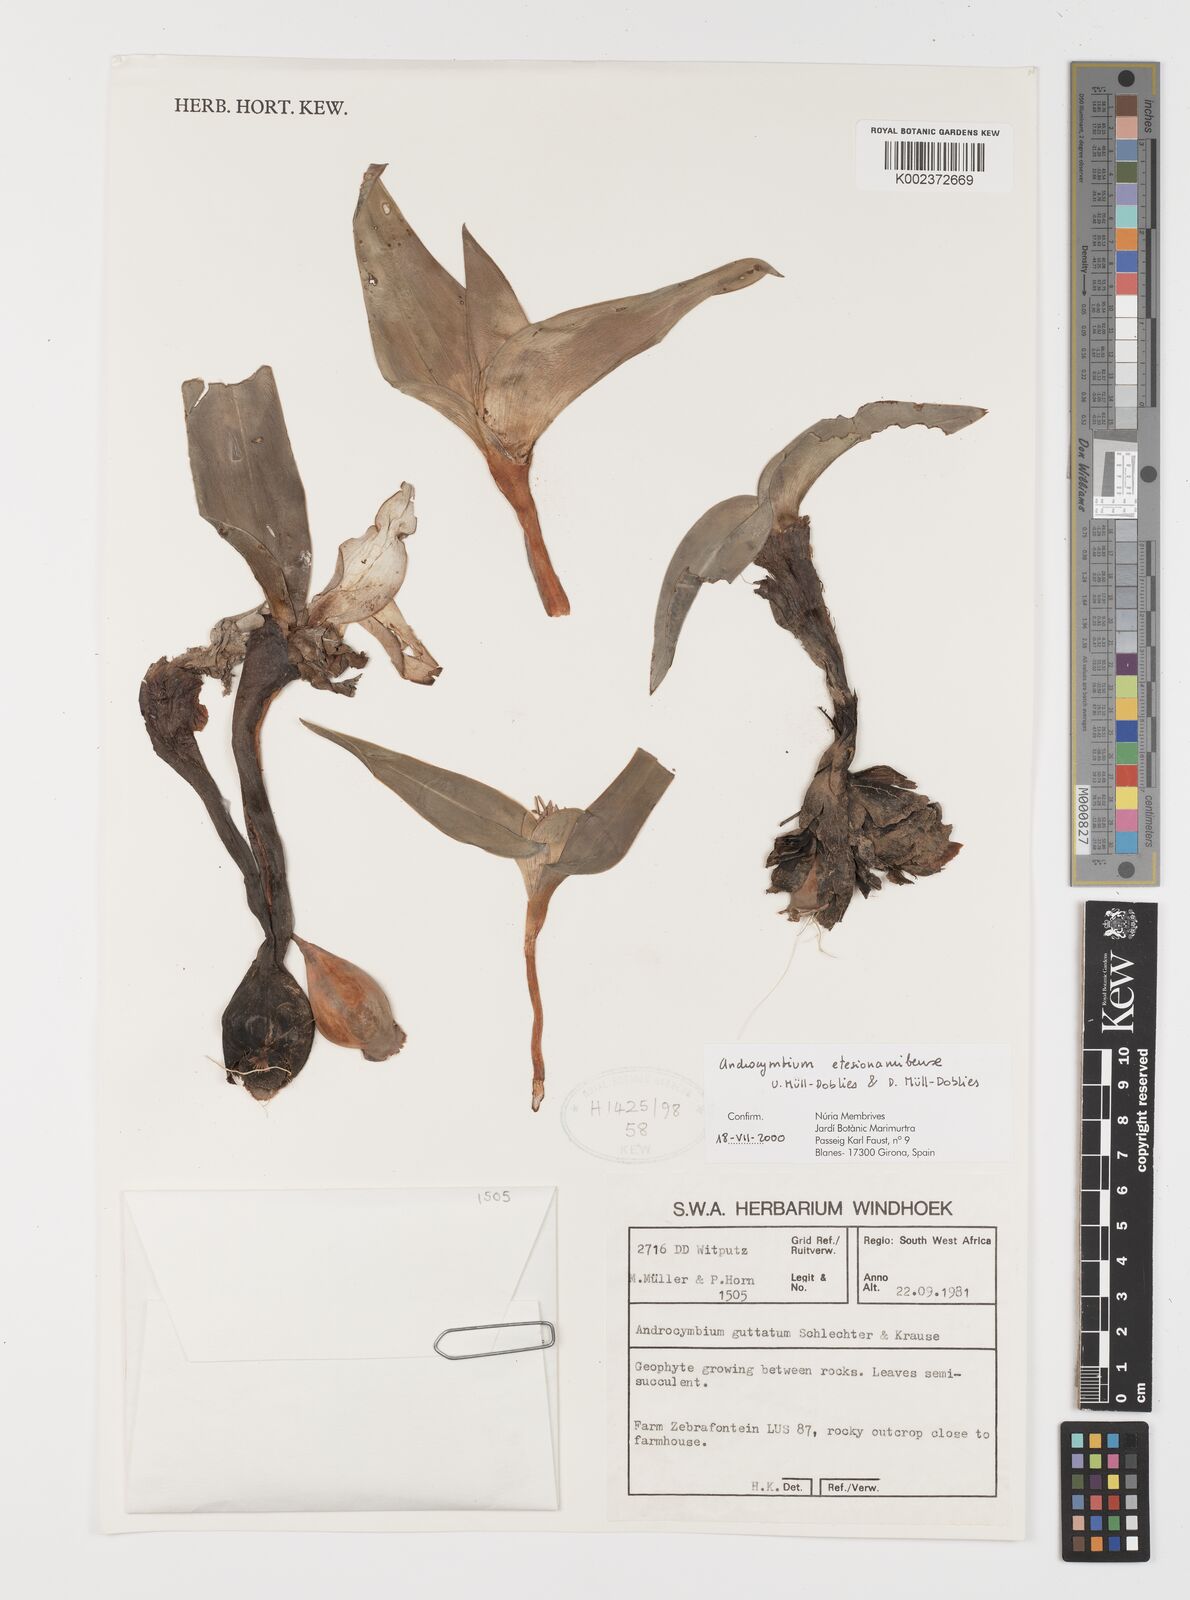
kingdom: Plantae
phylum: Tracheophyta
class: Liliopsida
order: Liliales
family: Colchicaceae
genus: Colchicum
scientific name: Colchicum etesionamibense
